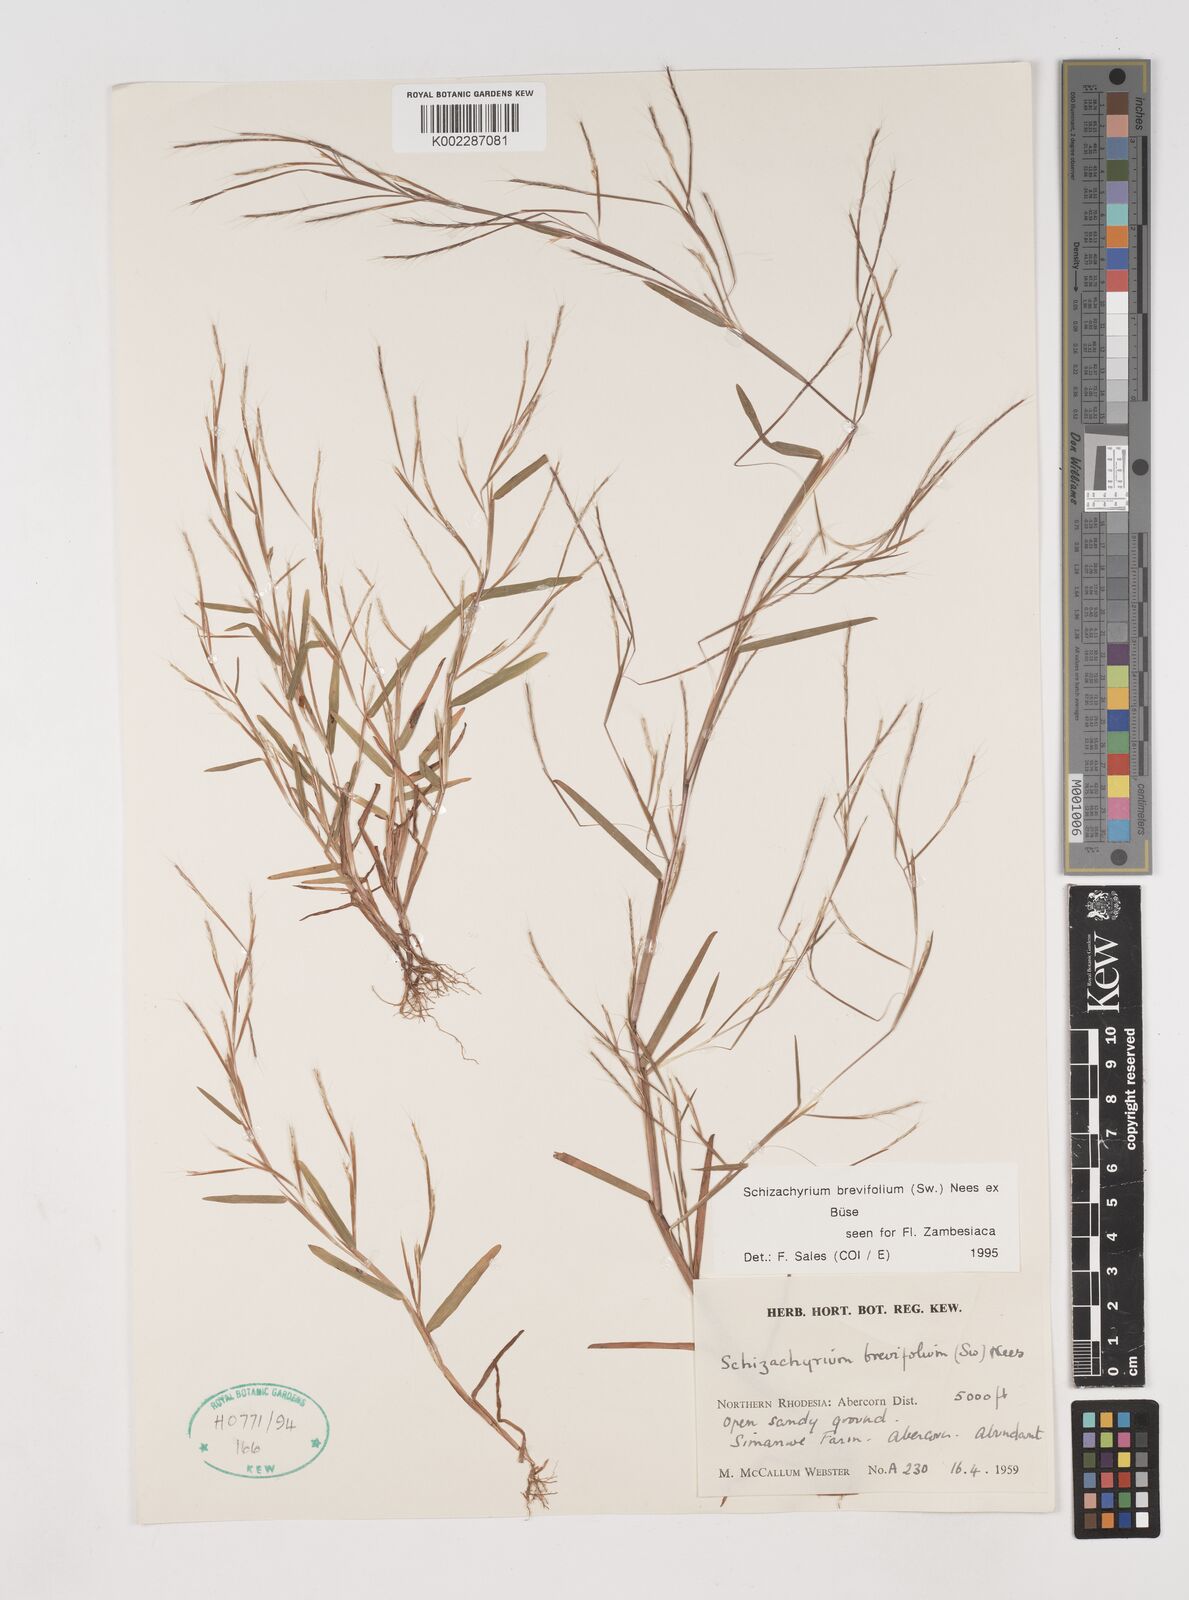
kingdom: Plantae
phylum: Tracheophyta
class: Liliopsida
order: Poales
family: Poaceae
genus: Schizachyrium
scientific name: Schizachyrium brevifolium
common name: Serillo dulce
